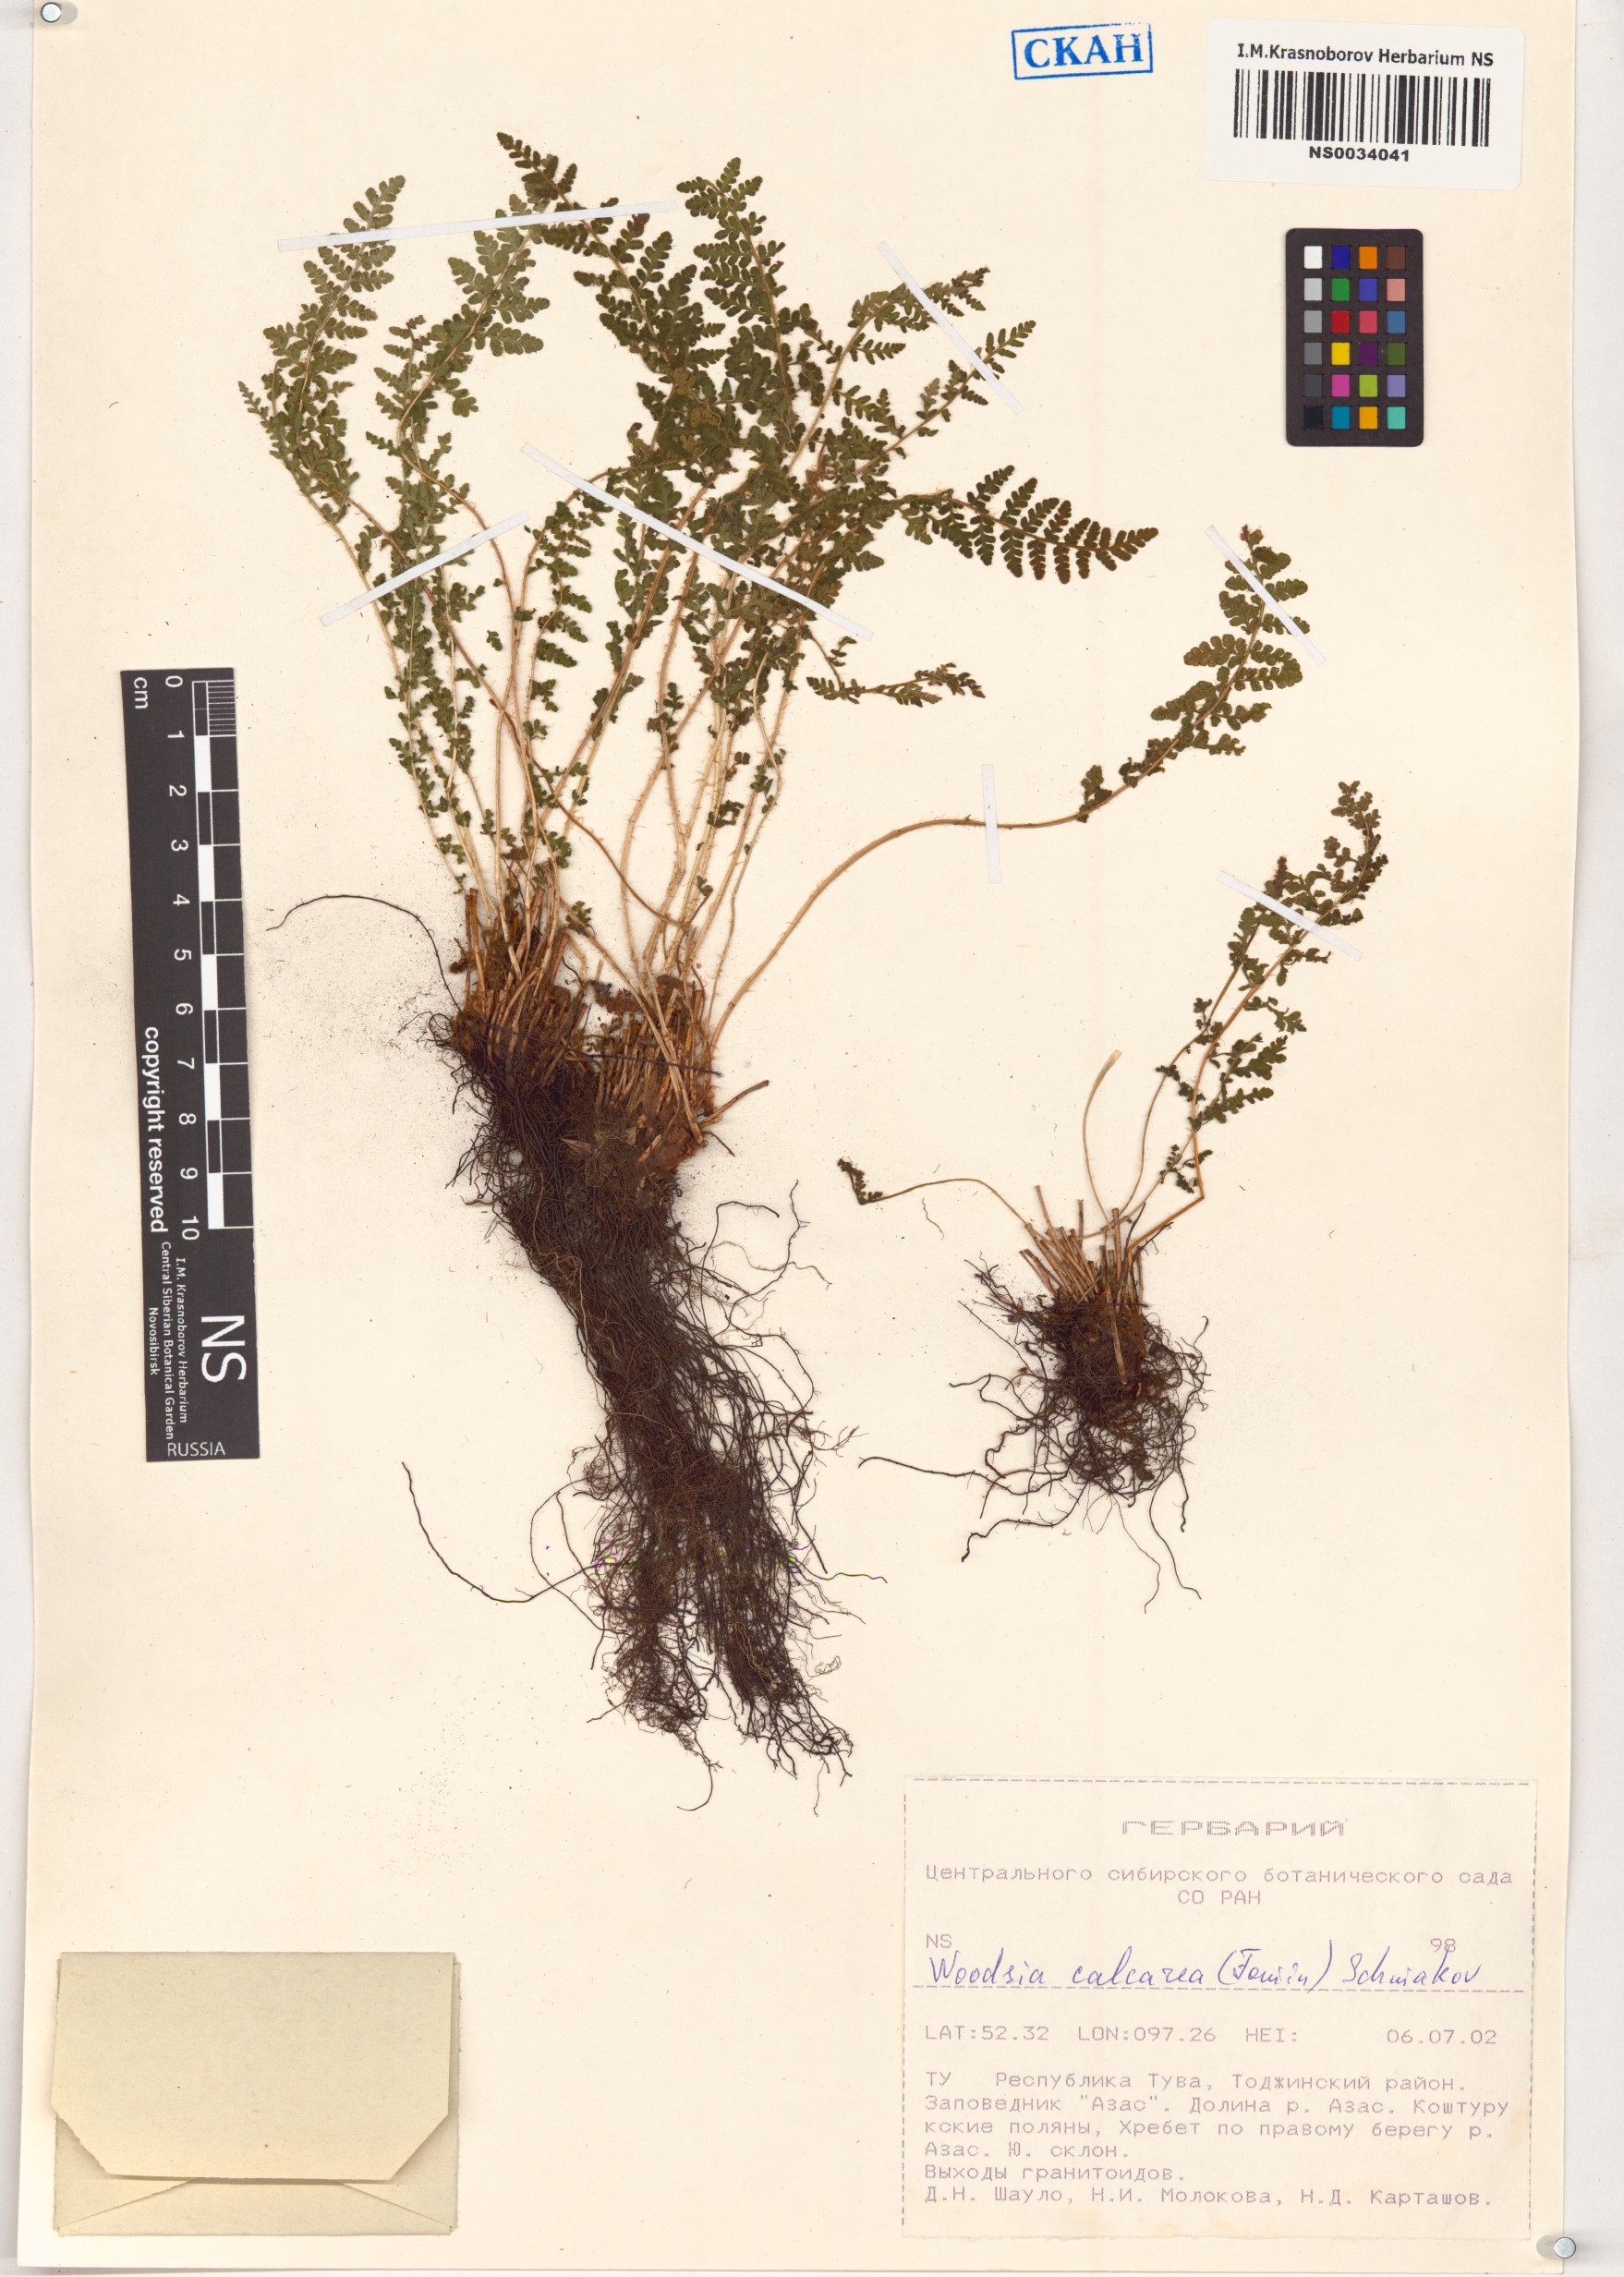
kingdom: Plantae
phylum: Tracheophyta
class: Polypodiopsida
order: Polypodiales
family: Woodsiaceae
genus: Woodsia
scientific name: Woodsia calcarea
